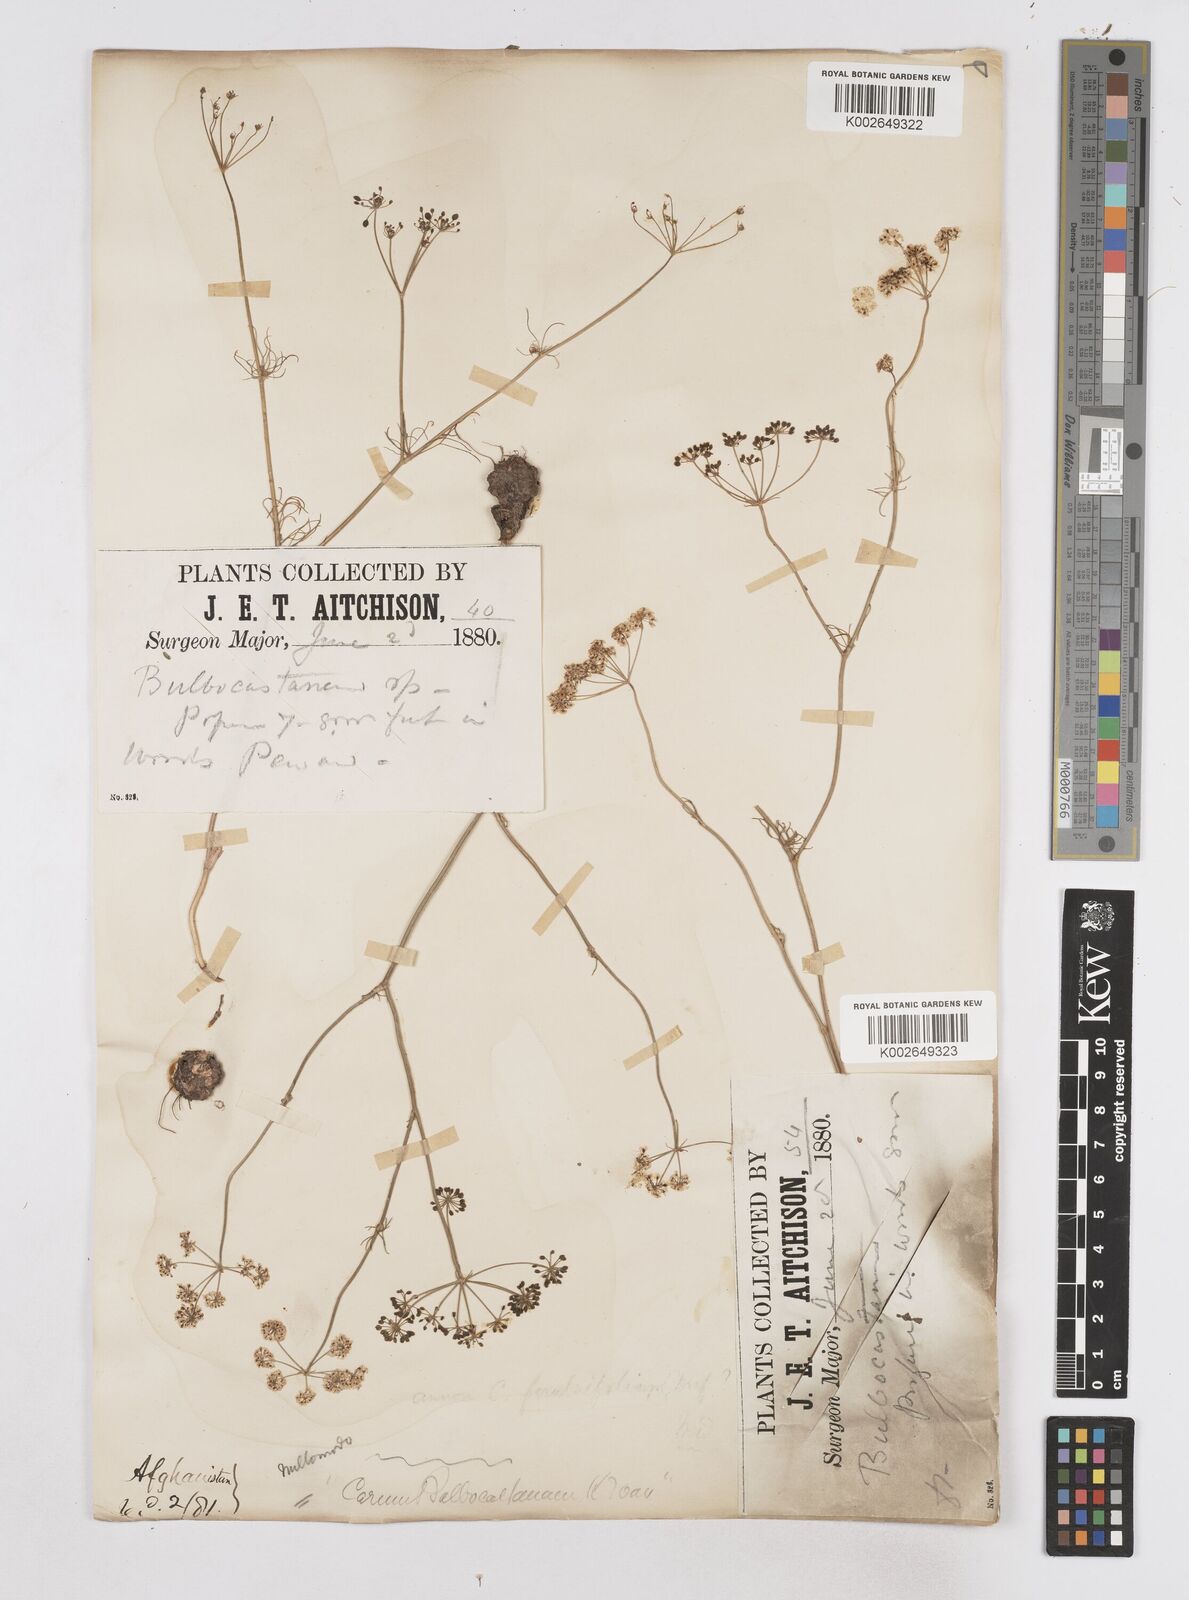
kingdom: Plantae
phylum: Tracheophyta
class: Magnoliopsida
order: Apiales
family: Apiaceae
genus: Elwendia
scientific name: Elwendia persica
